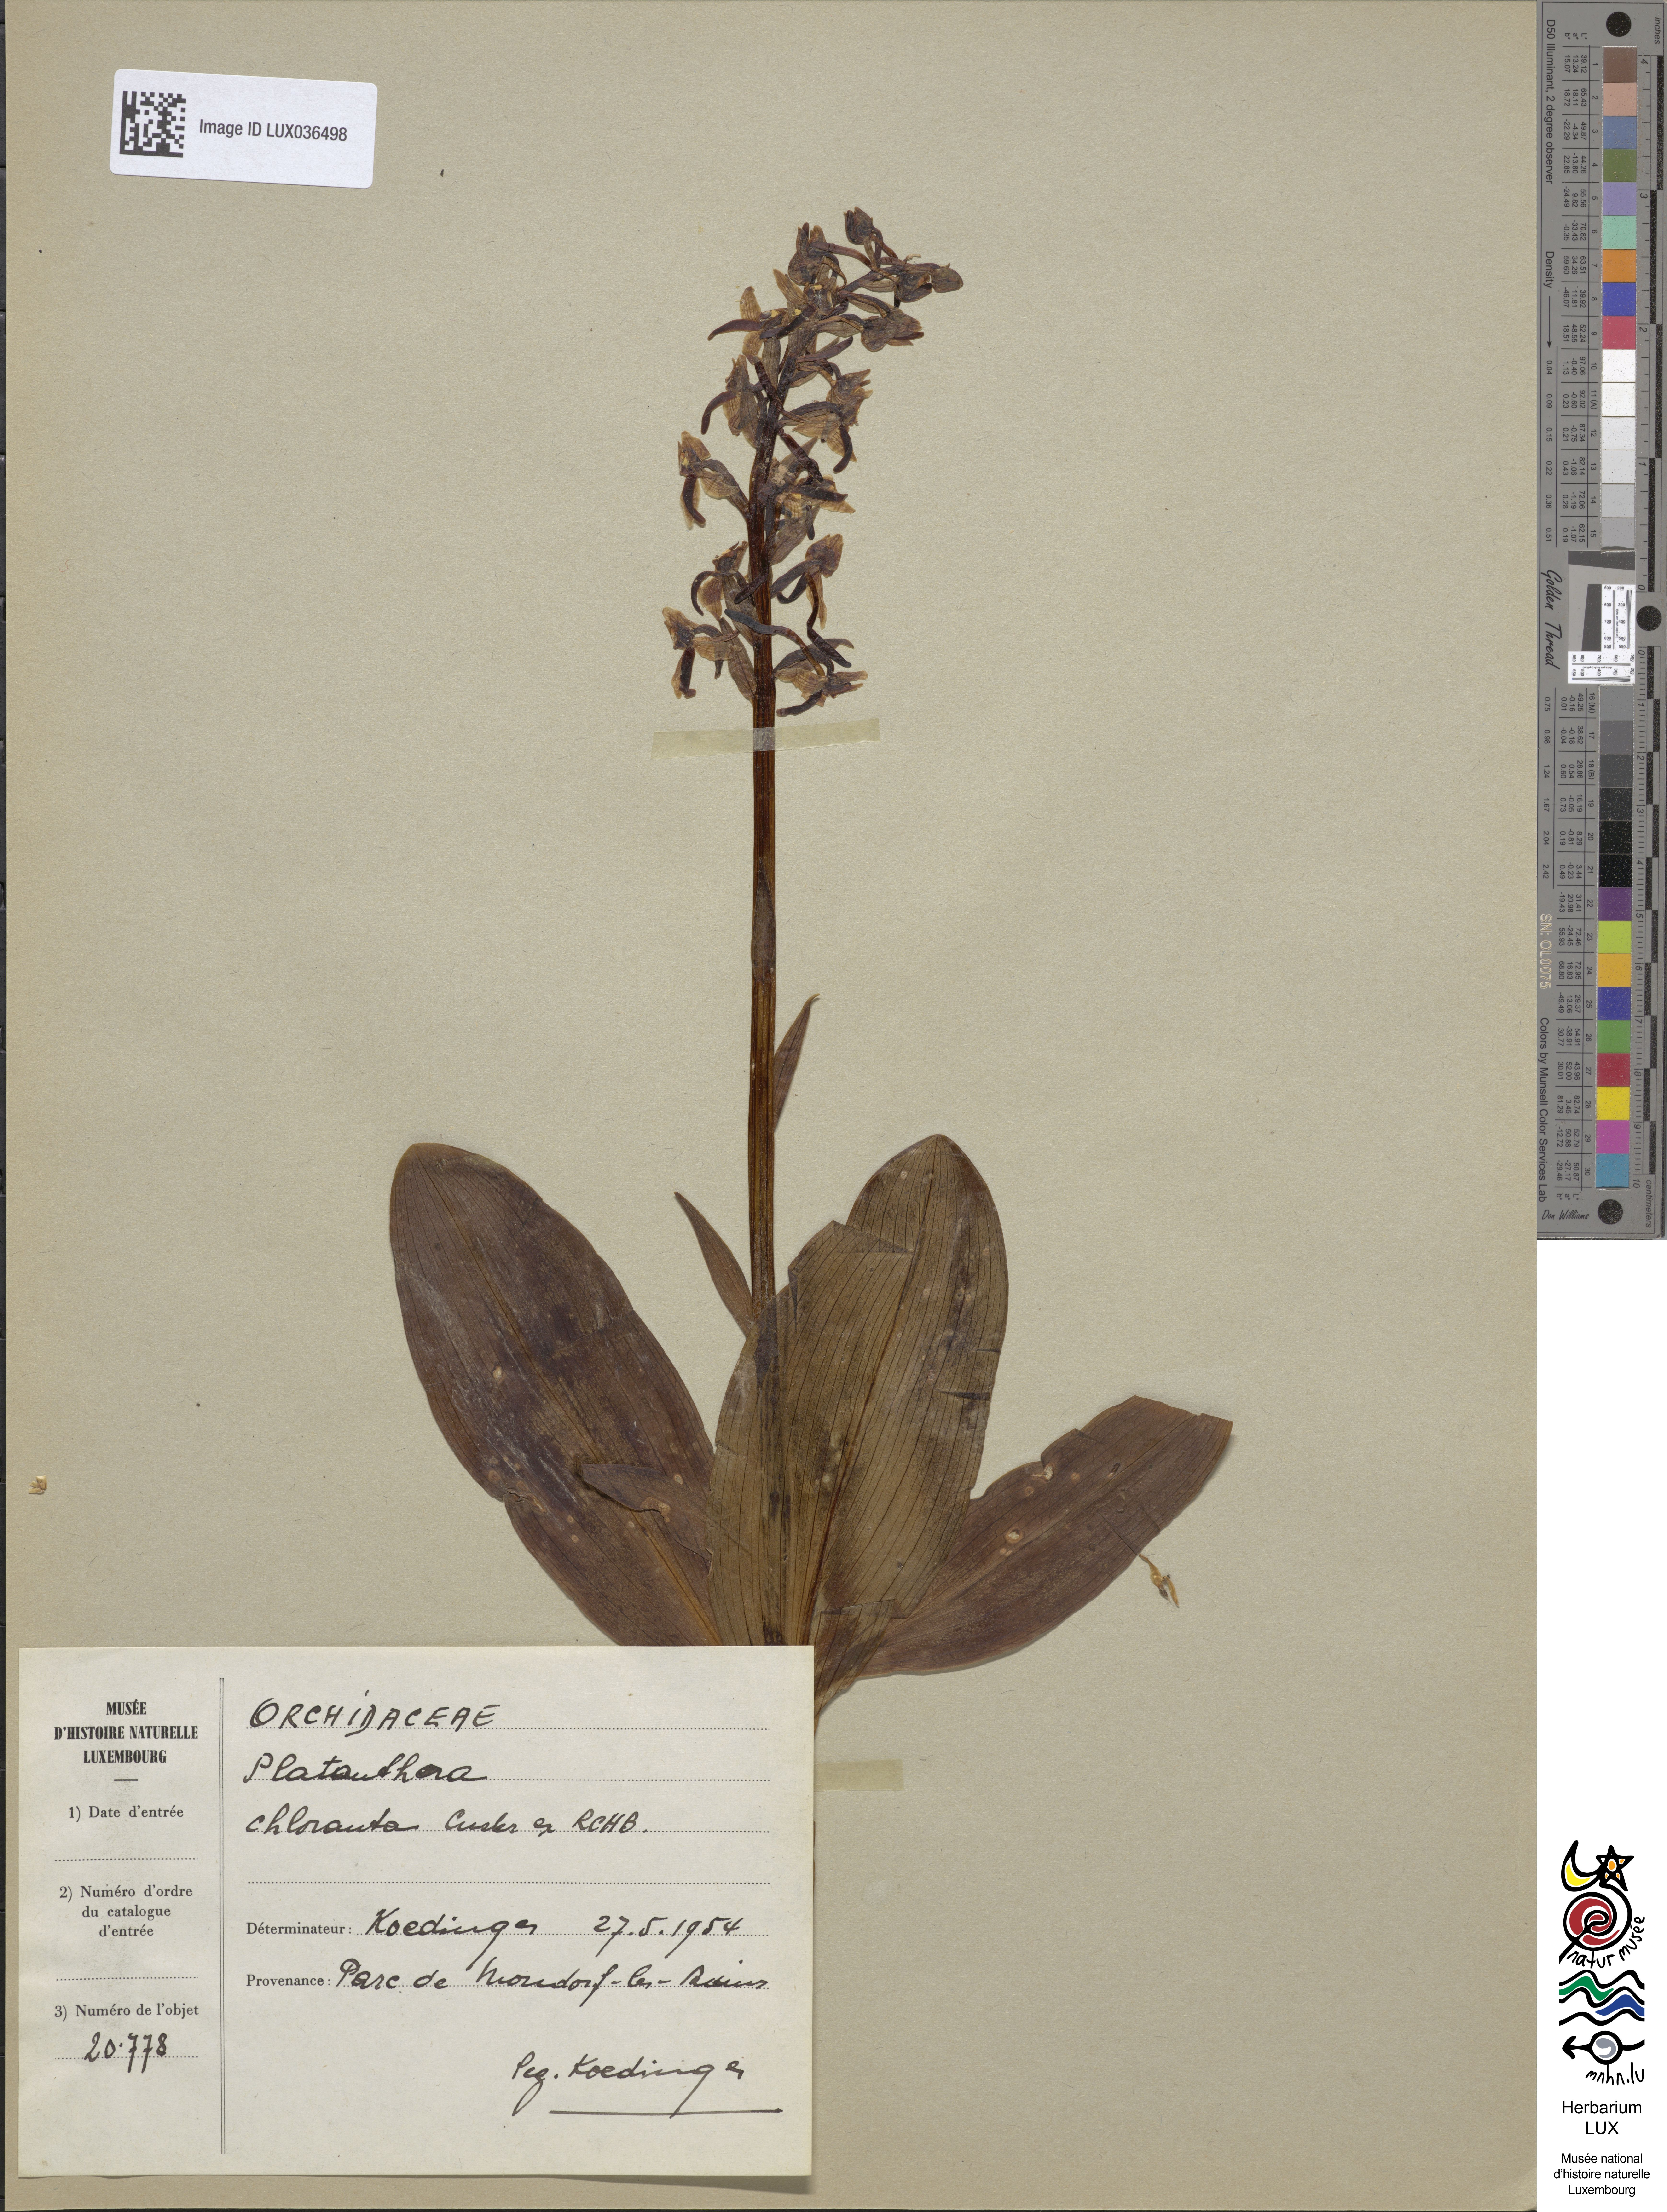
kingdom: Plantae
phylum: Tracheophyta
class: Liliopsida
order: Asparagales
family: Orchidaceae
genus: Platanthera
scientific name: Platanthera chlorantha
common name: Greater butterfly-orchid
